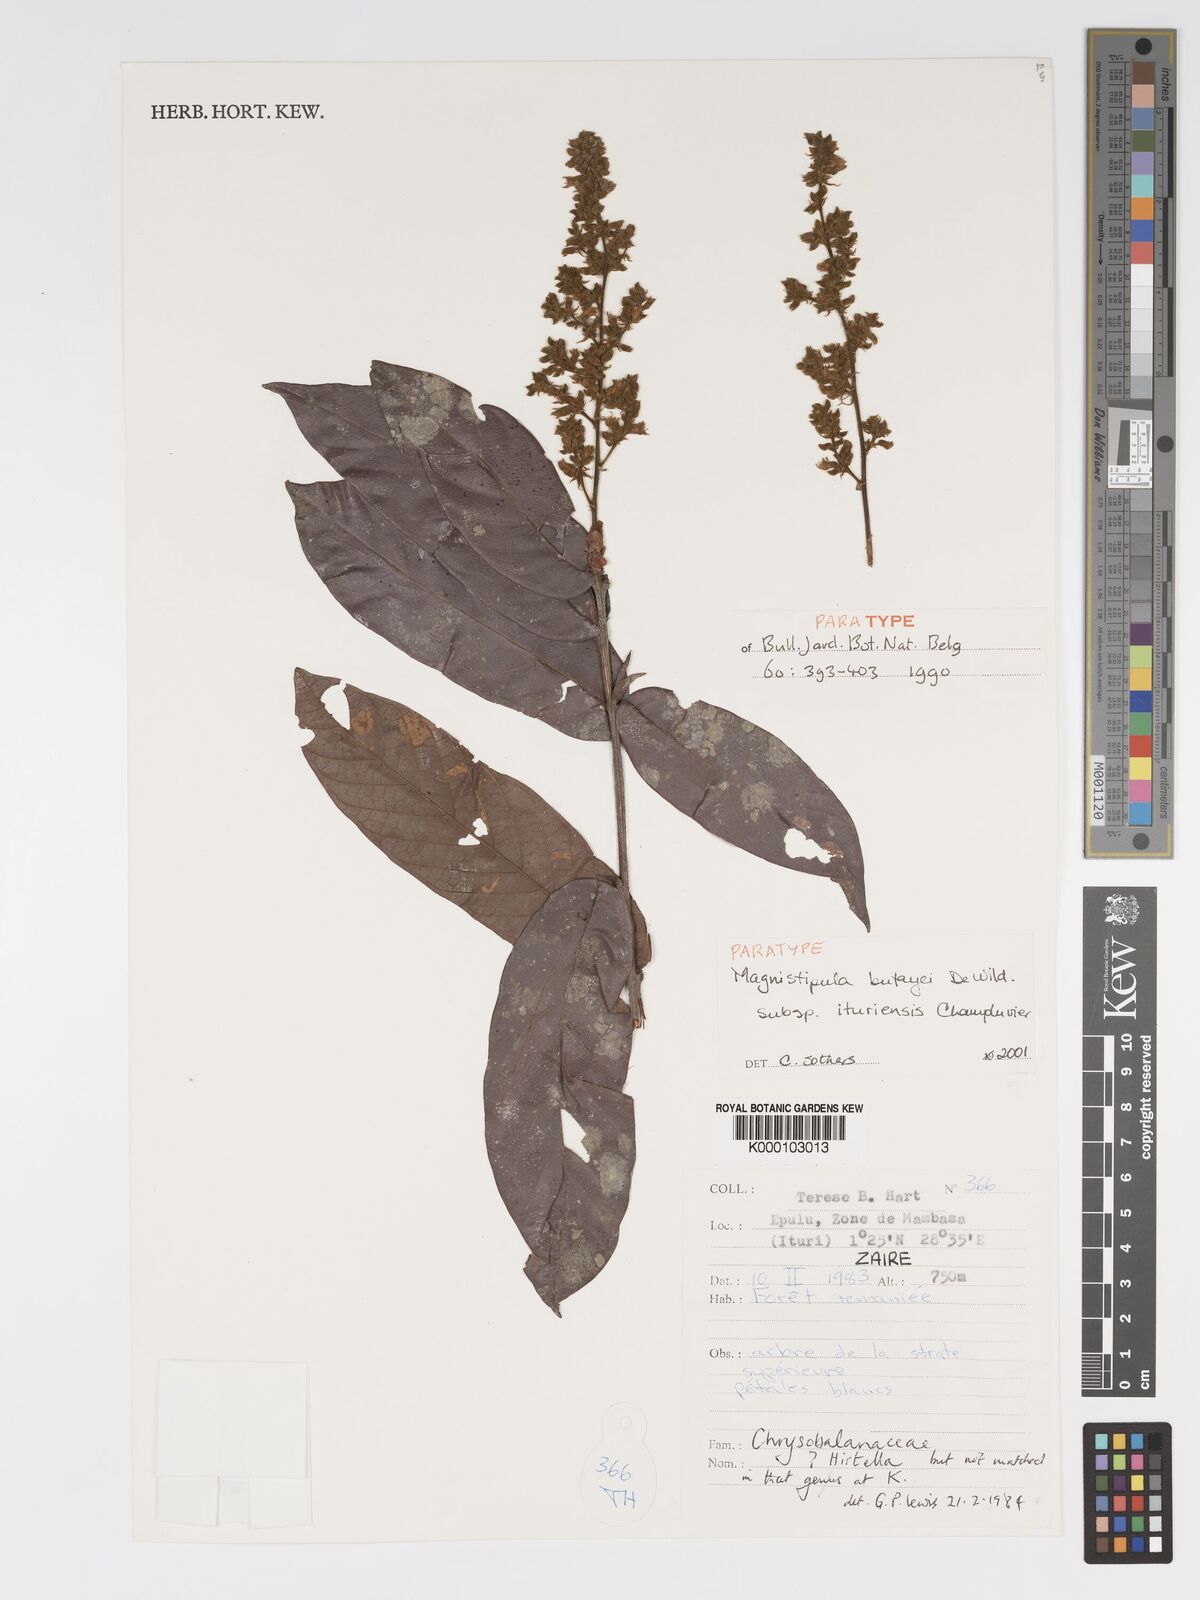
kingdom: Plantae
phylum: Tracheophyta
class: Magnoliopsida
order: Malpighiales
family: Chrysobalanaceae
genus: Magnistipula
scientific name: Magnistipula butayei
